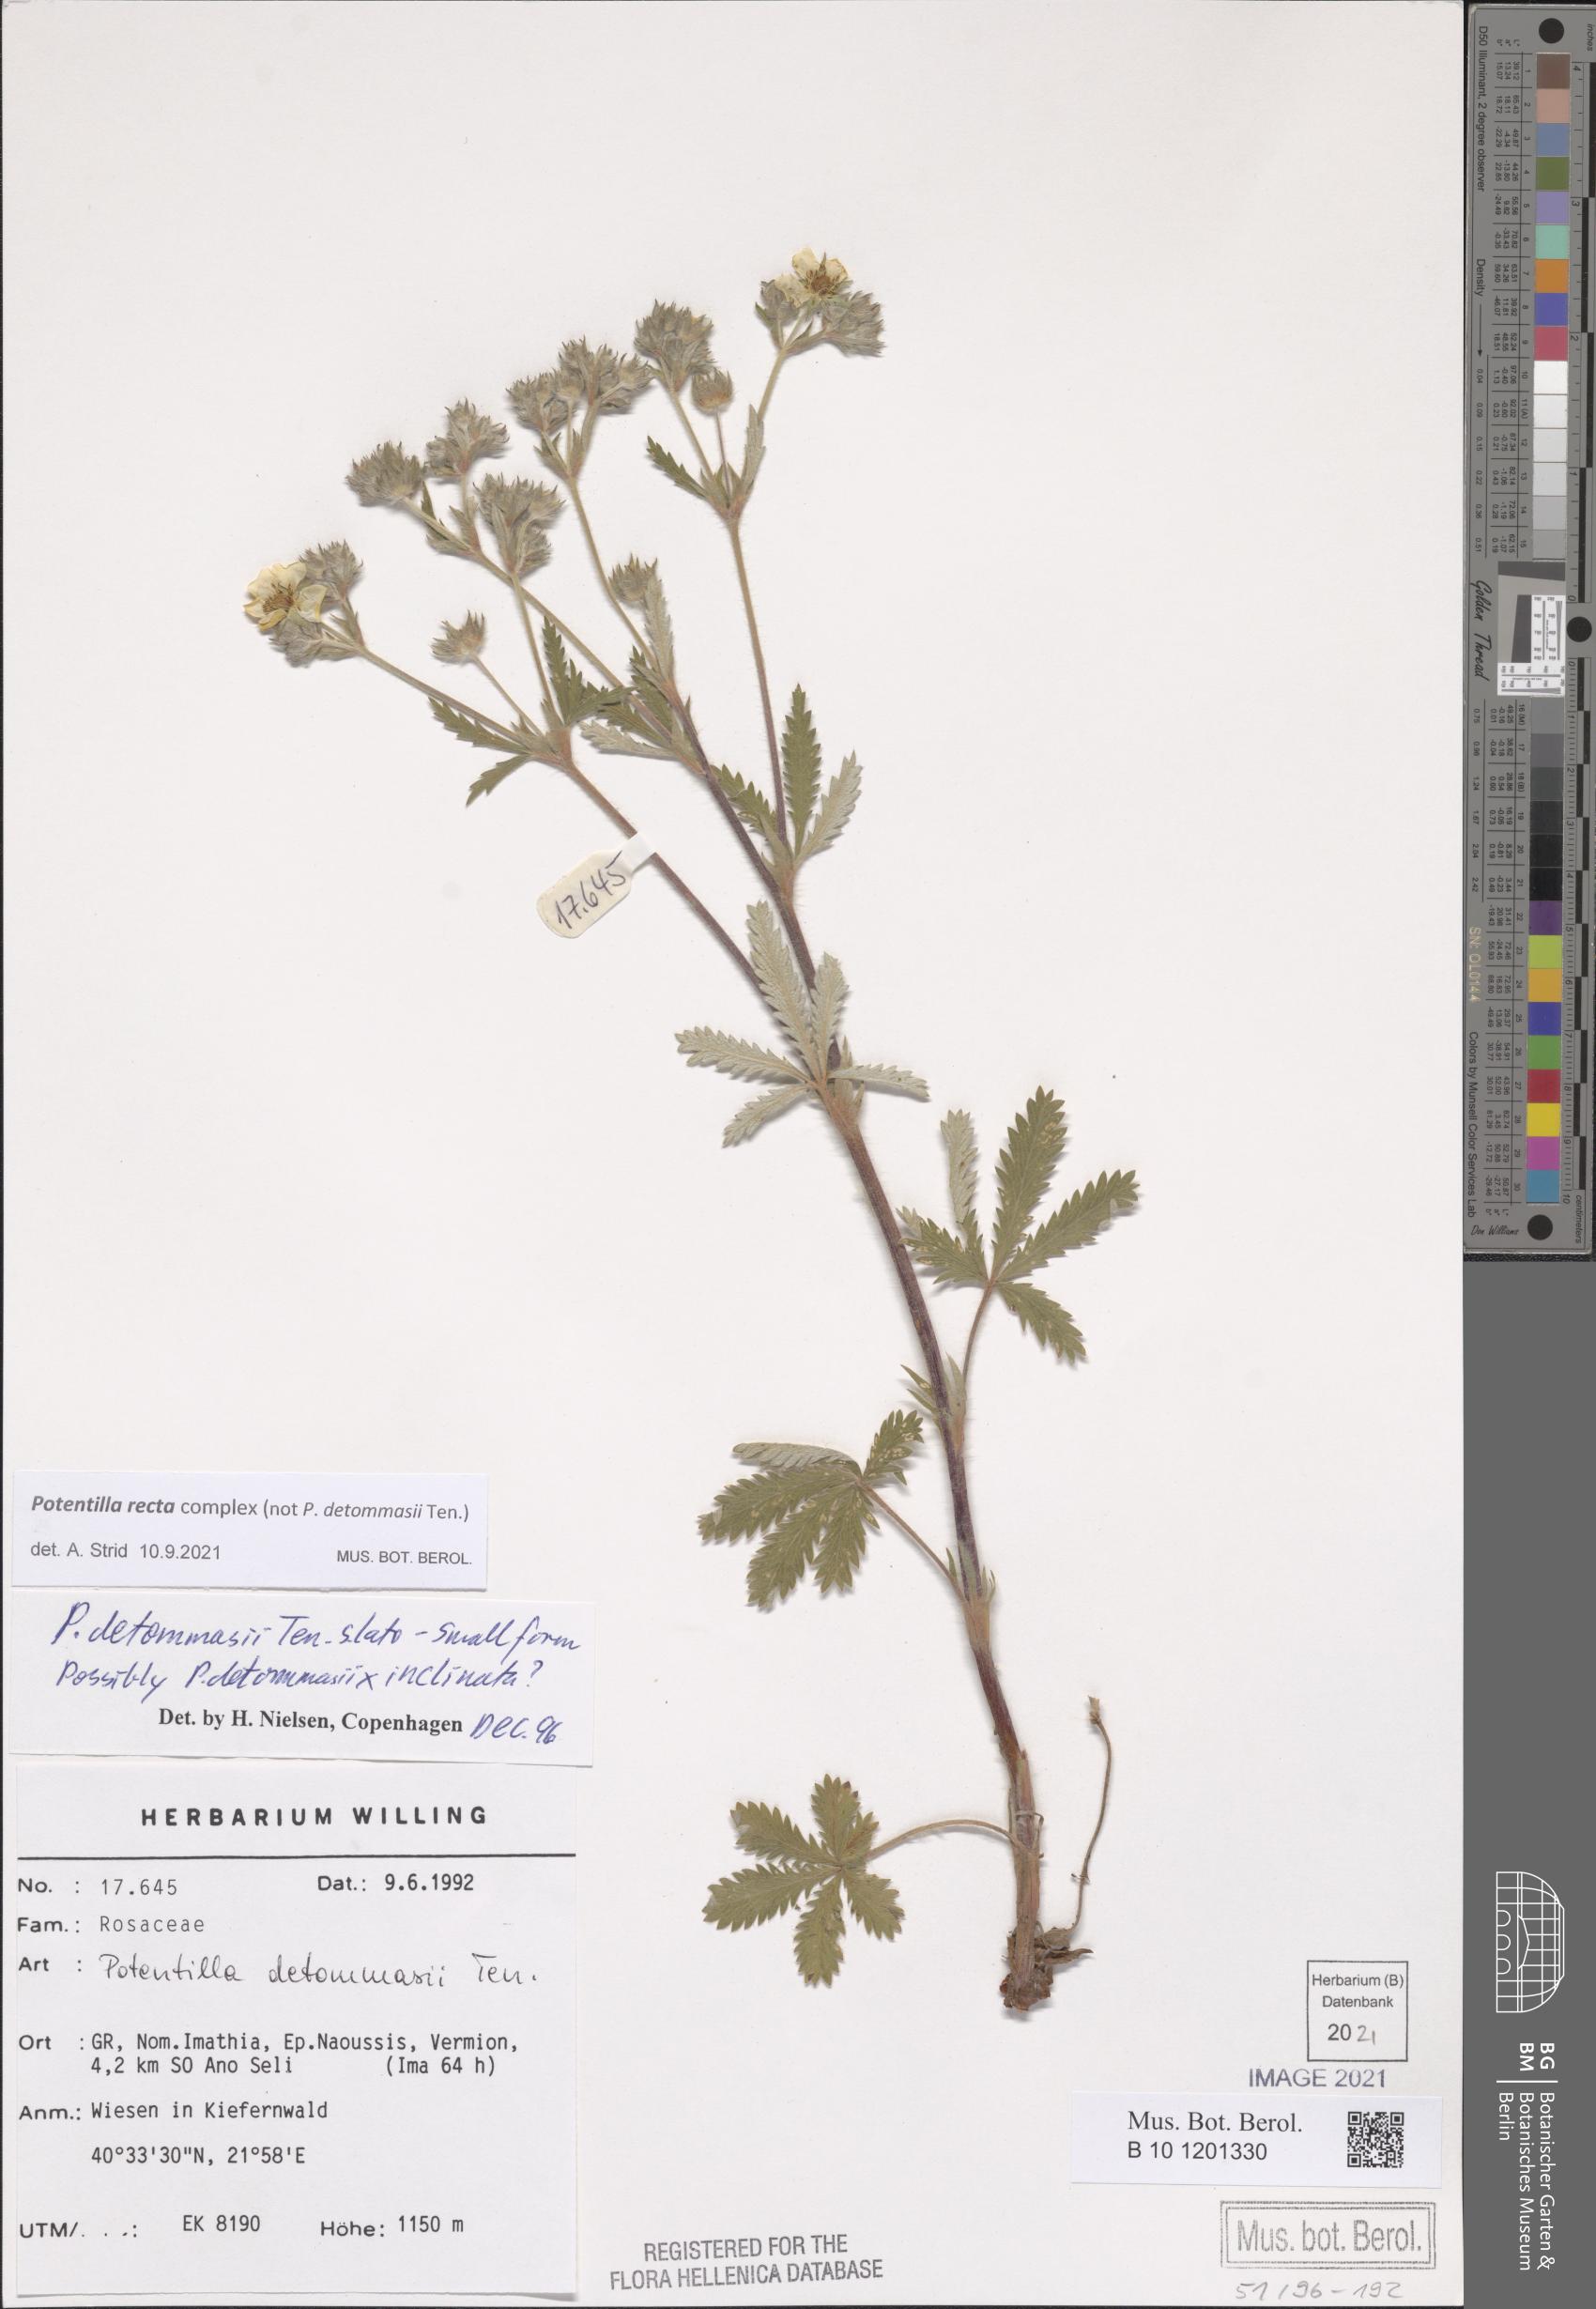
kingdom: Plantae
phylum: Tracheophyta
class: Magnoliopsida
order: Rosales
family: Rosaceae
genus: Potentilla
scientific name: Potentilla recta
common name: Sulphur cinquefoil
